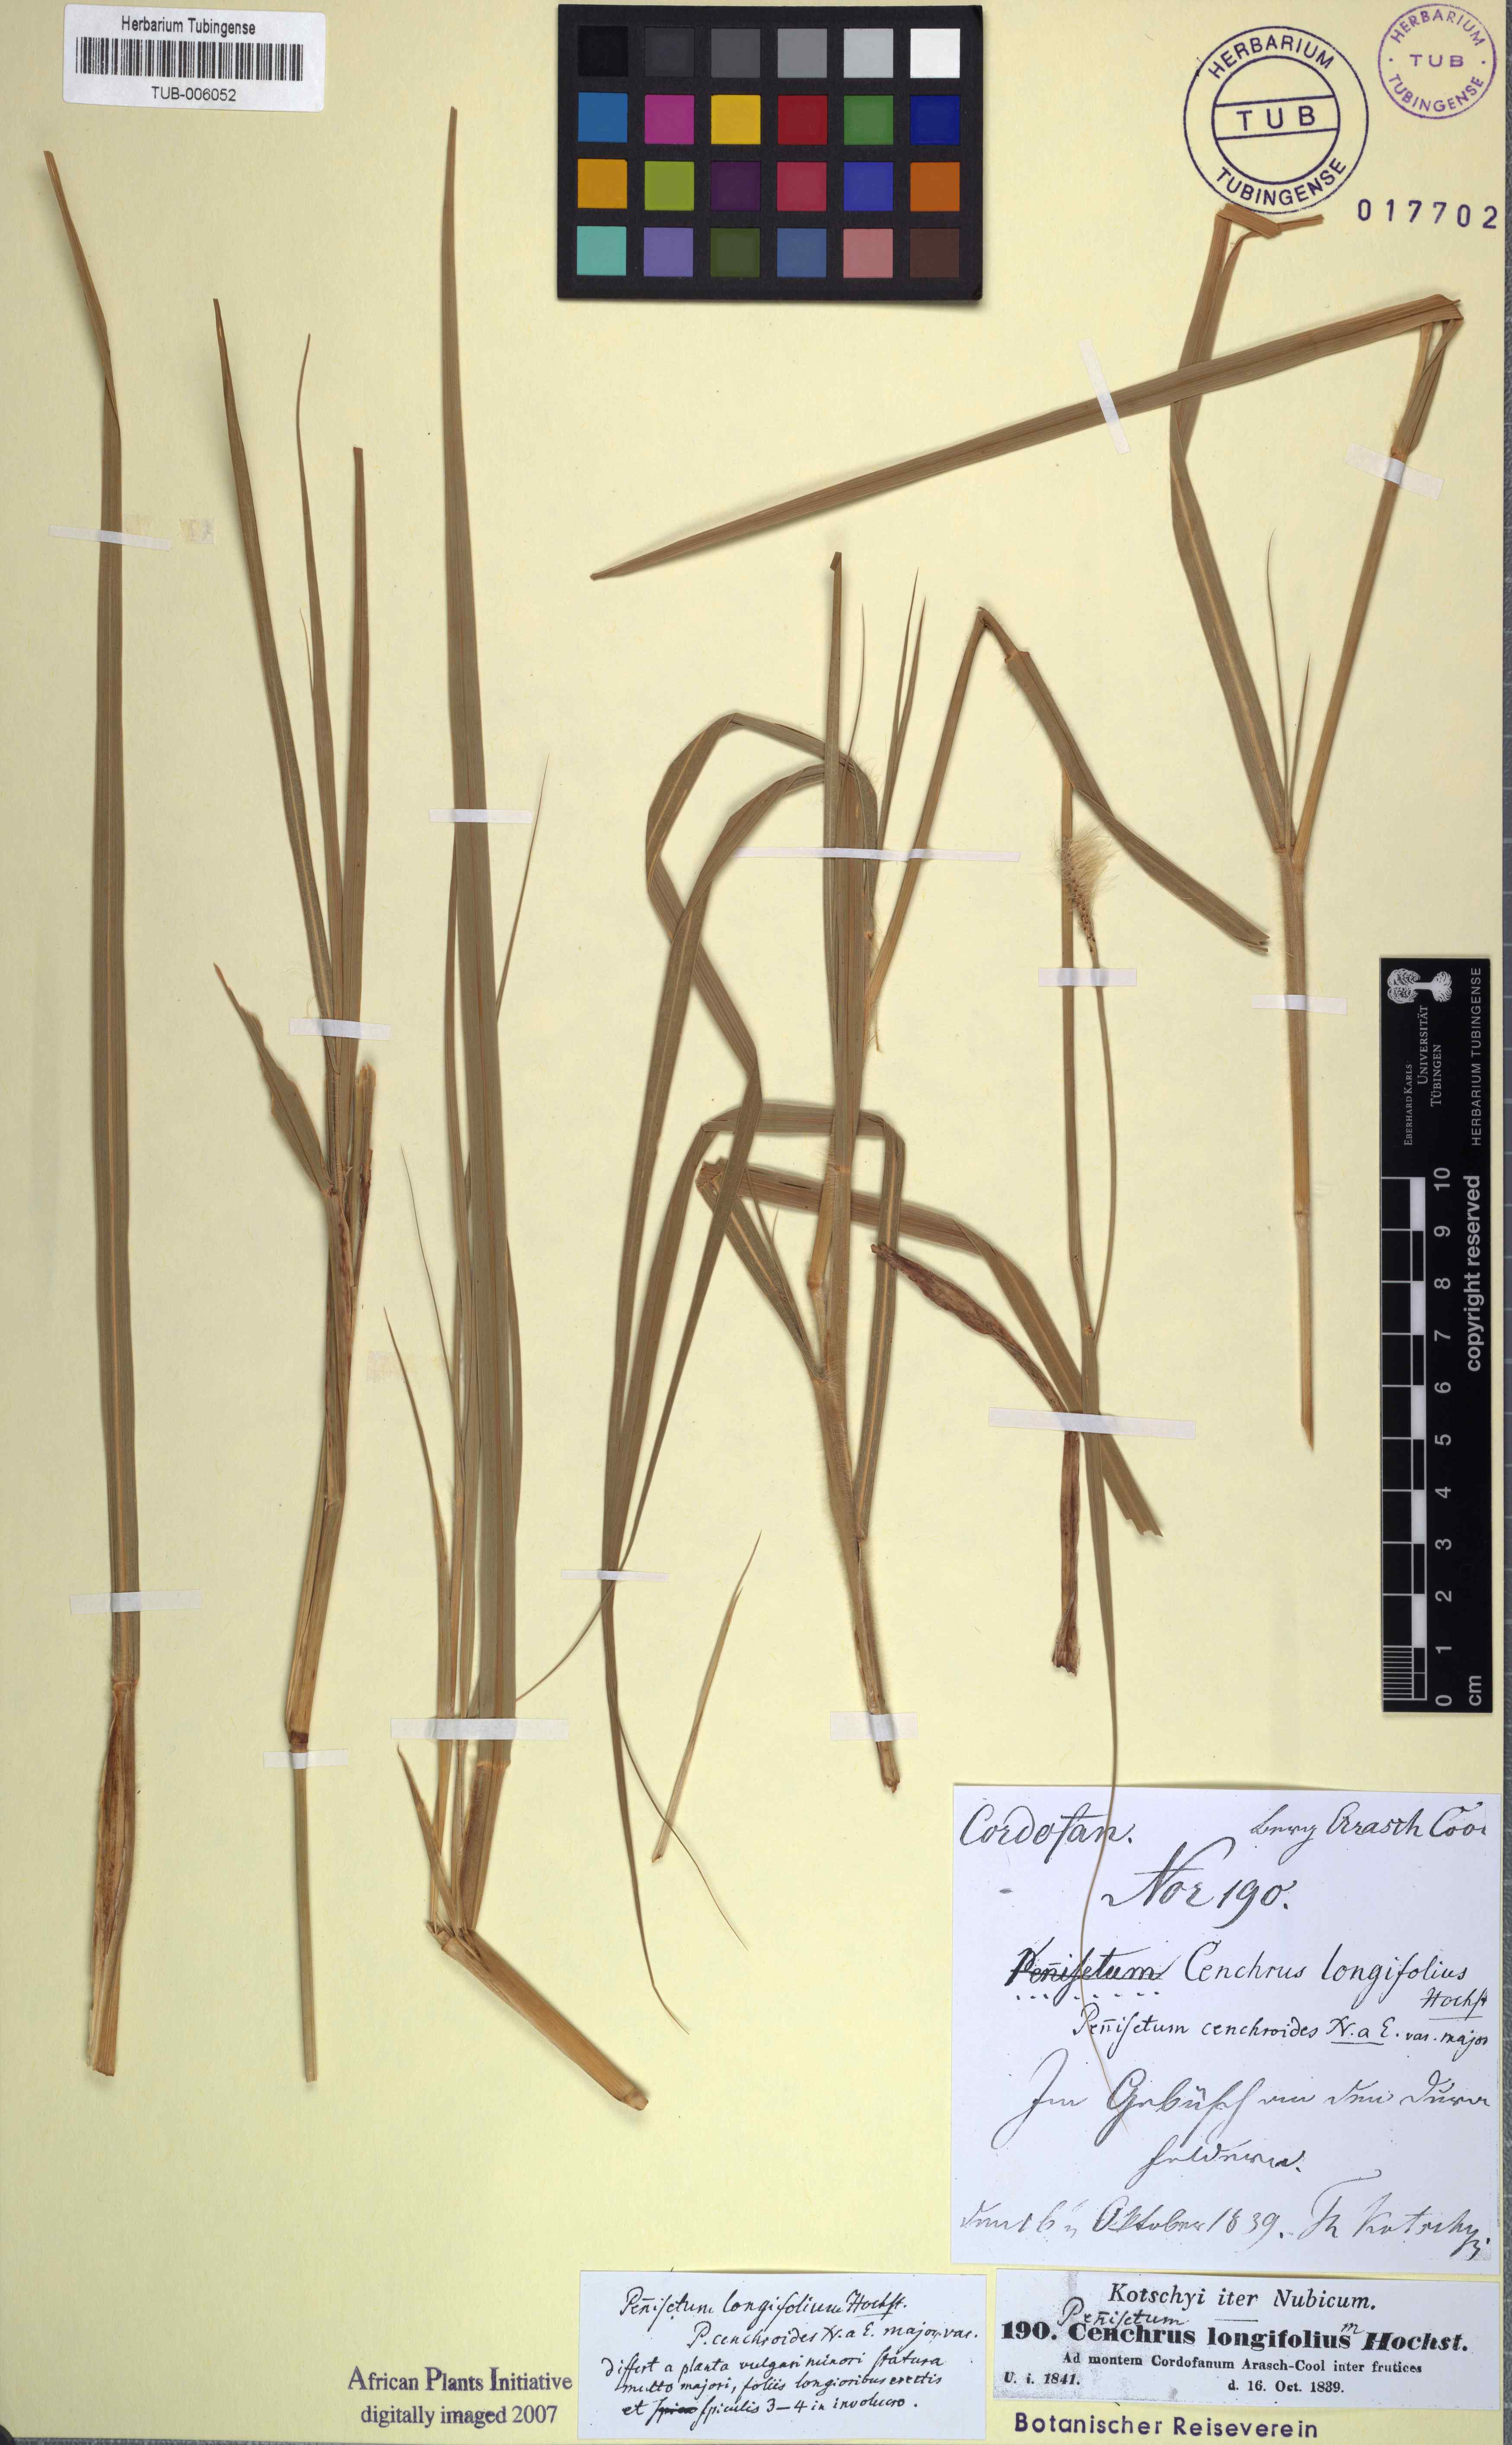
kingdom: Plantae
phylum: Tracheophyta
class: Liliopsida
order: Poales
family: Poaceae
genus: Cenchrus
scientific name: Cenchrus ciliaris
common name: Buffelgrass
